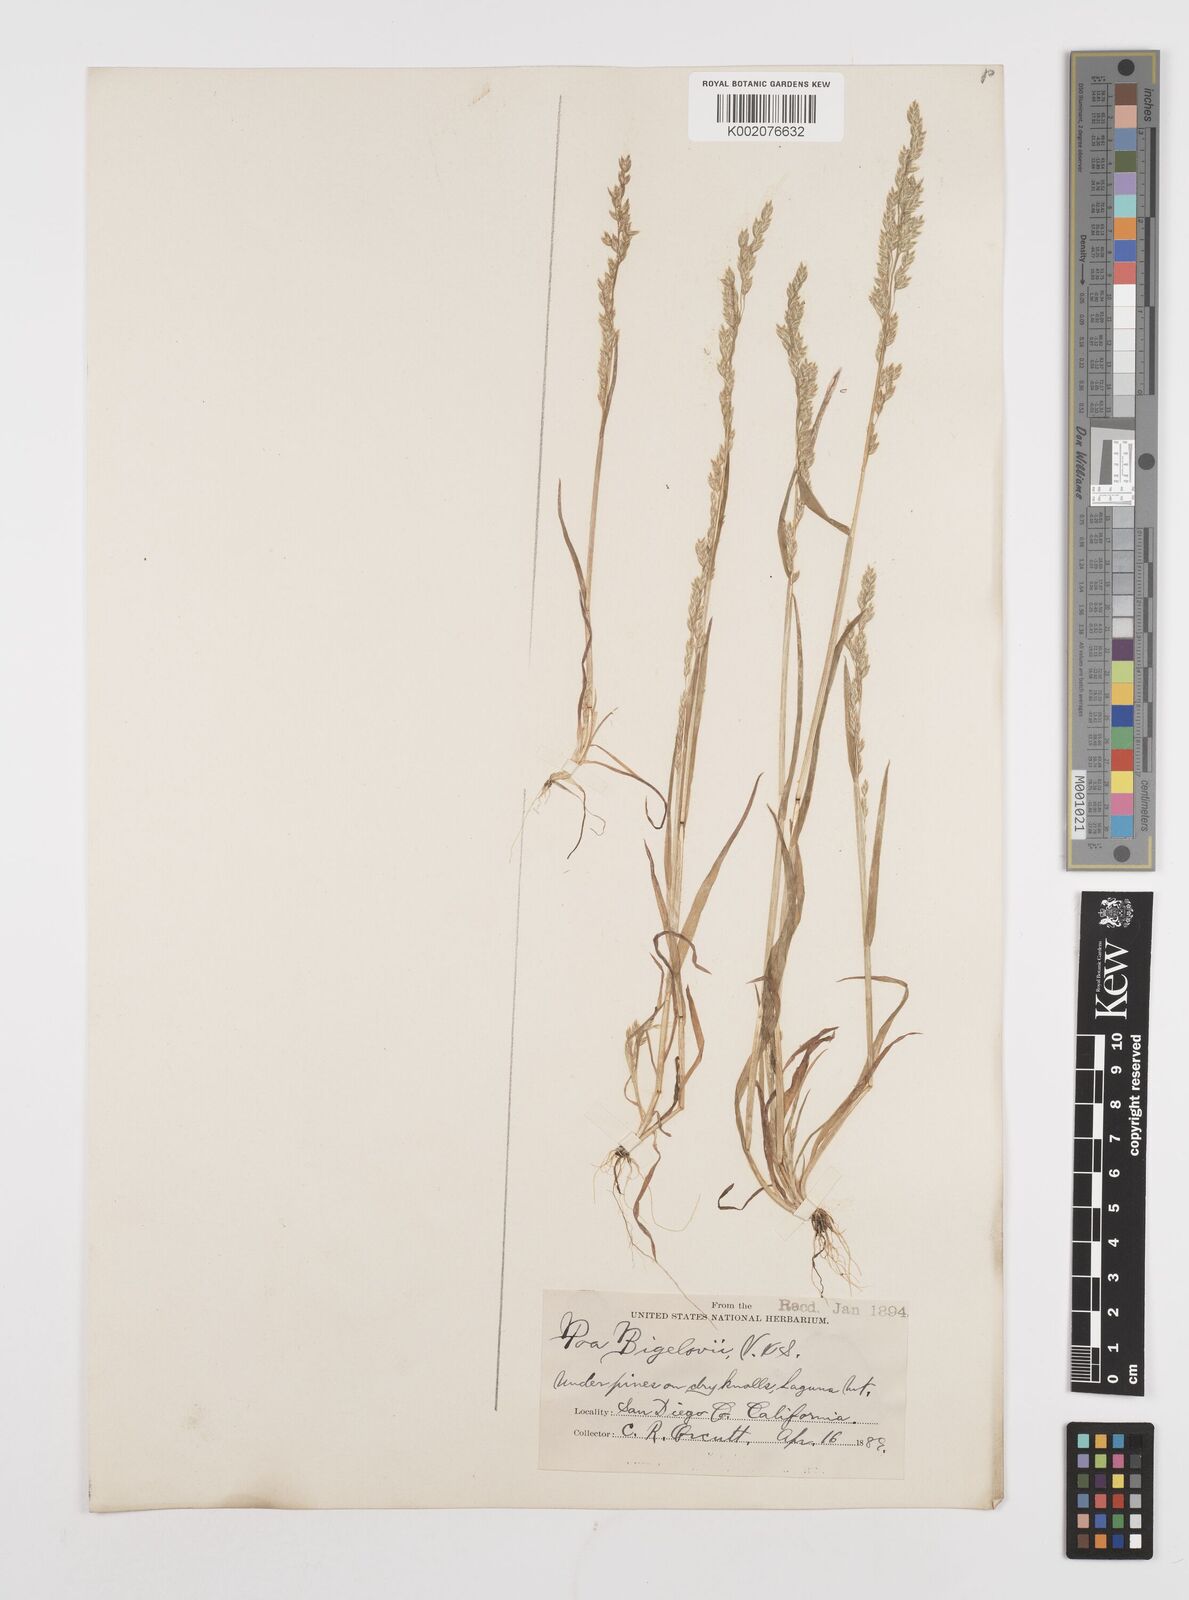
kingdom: Plantae
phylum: Tracheophyta
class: Liliopsida
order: Poales
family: Poaceae
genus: Poa
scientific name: Poa bigelovii
